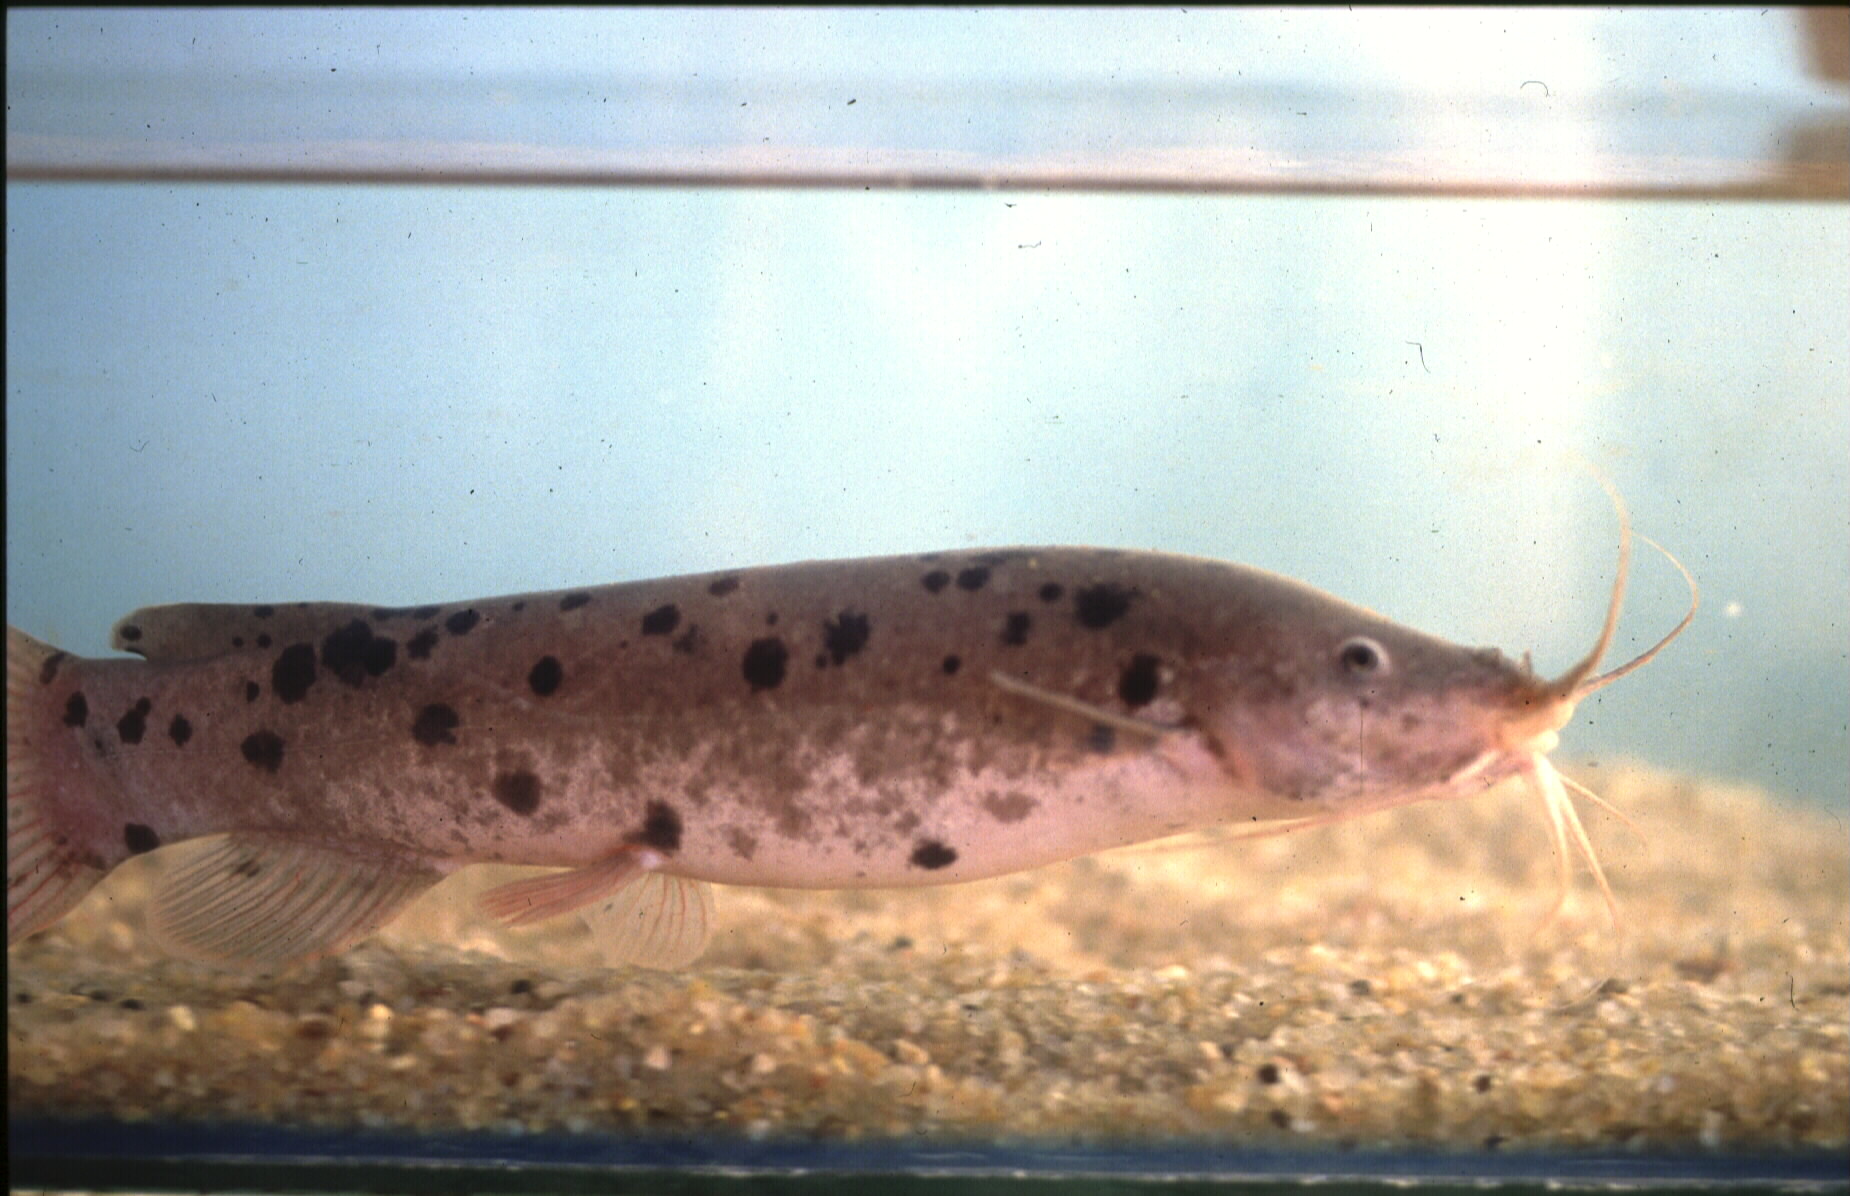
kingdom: Animalia
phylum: Chordata
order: Siluriformes
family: Malapteruridae
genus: Malapterurus
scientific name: Malapterurus shirensis
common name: Electric catfish
